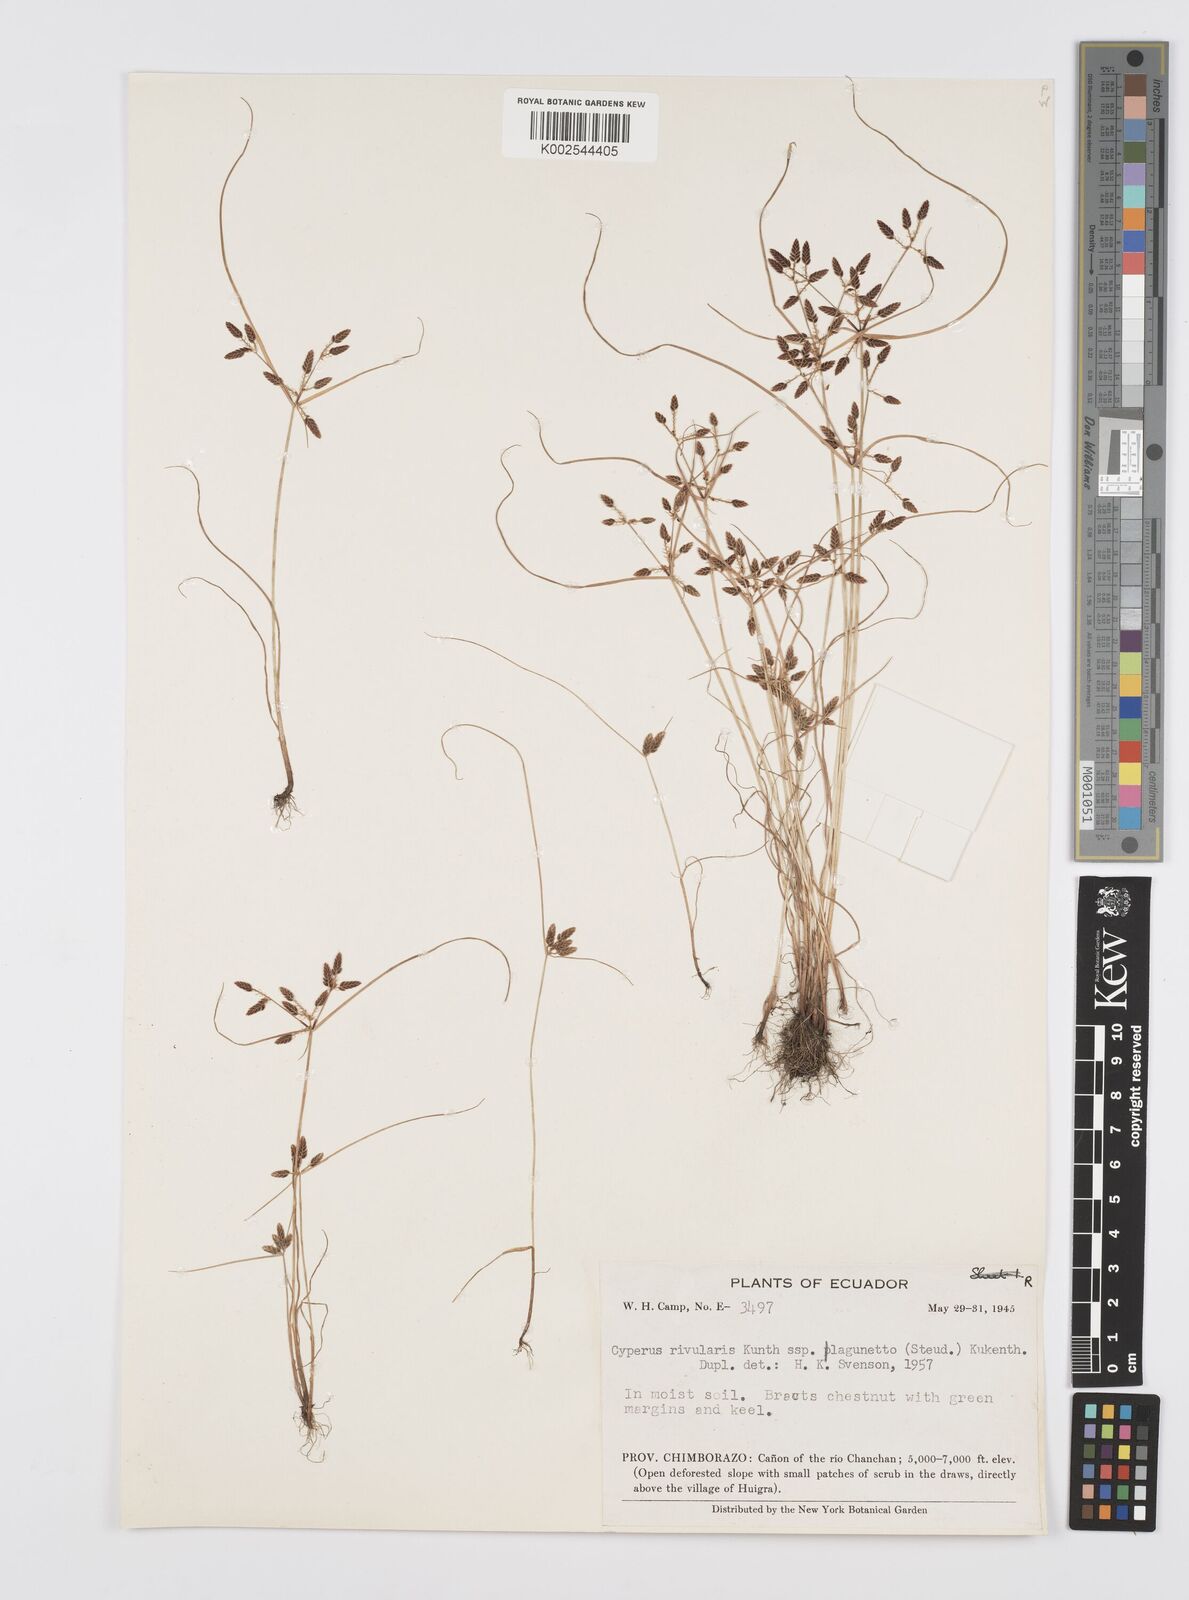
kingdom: Plantae
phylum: Tracheophyta
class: Liliopsida
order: Poales
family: Cyperaceae
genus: Cyperus
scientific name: Cyperus bipartitus
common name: Brook flatsedge
